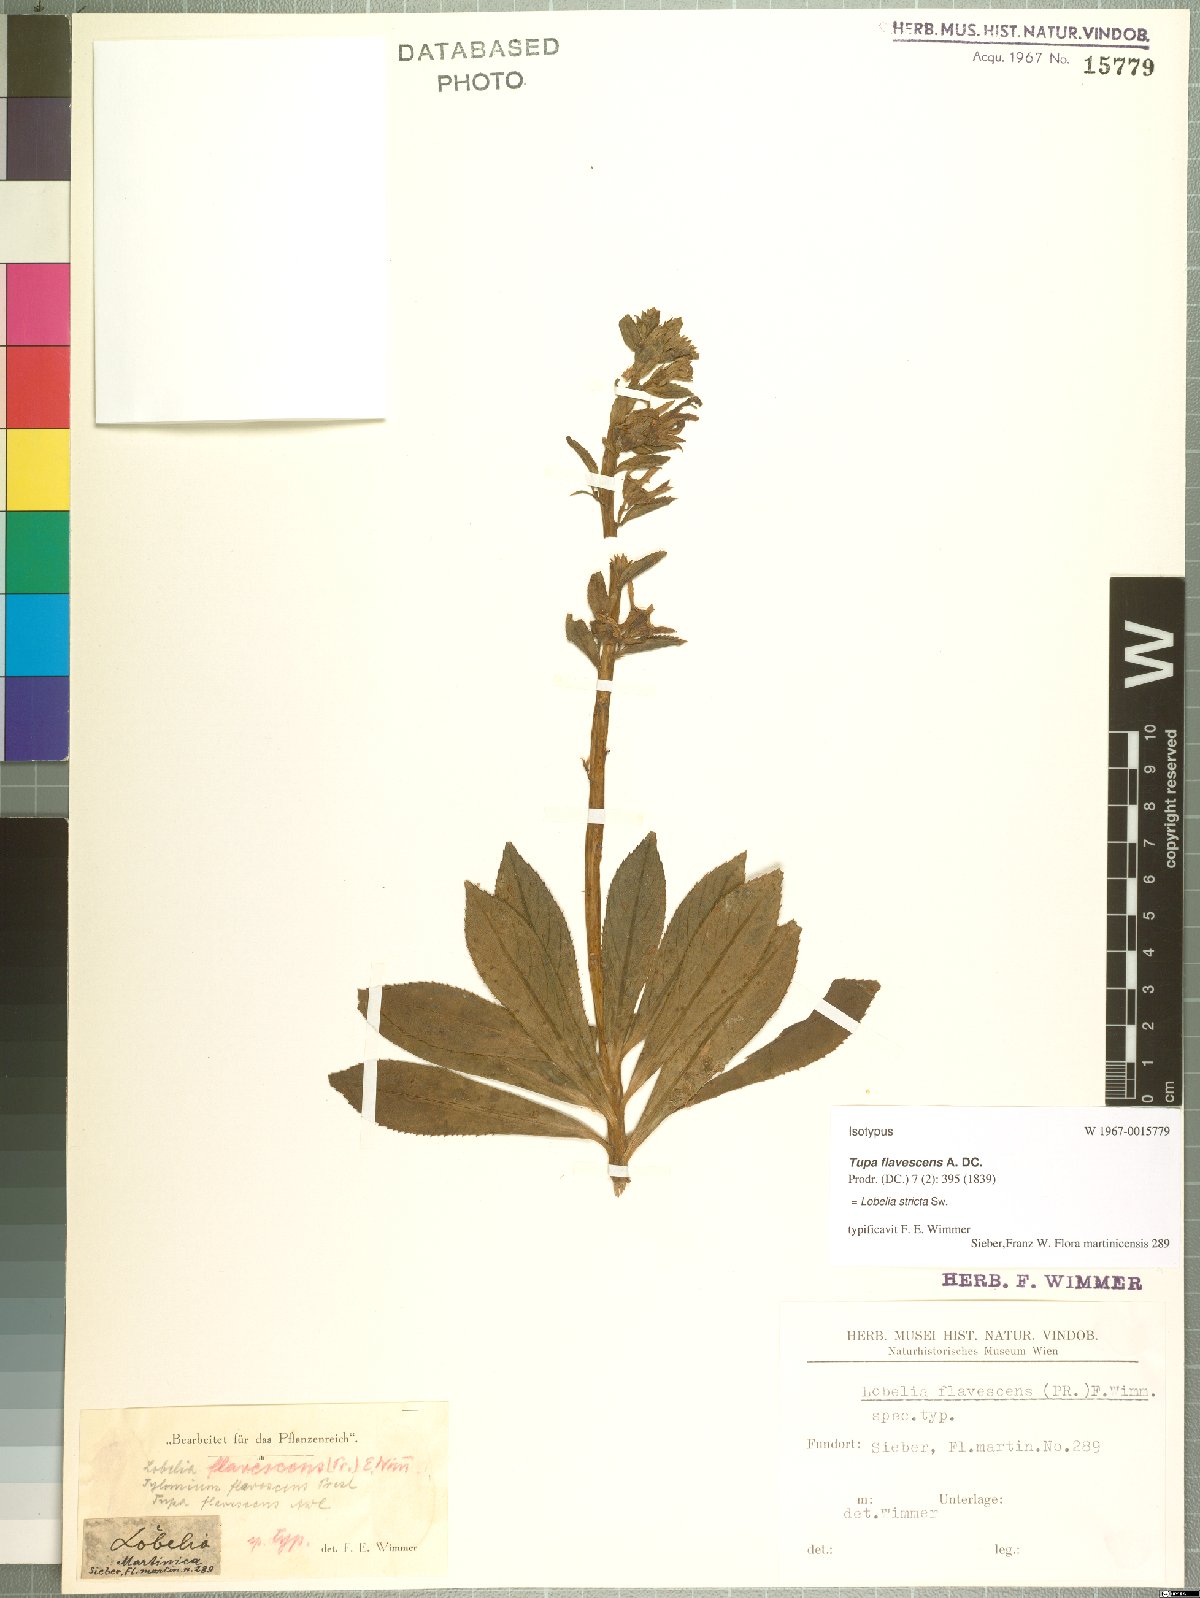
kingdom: Plantae
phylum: Tracheophyta
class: Magnoliopsida
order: Asterales
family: Campanulaceae
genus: Lobelia
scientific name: Lobelia stricta
